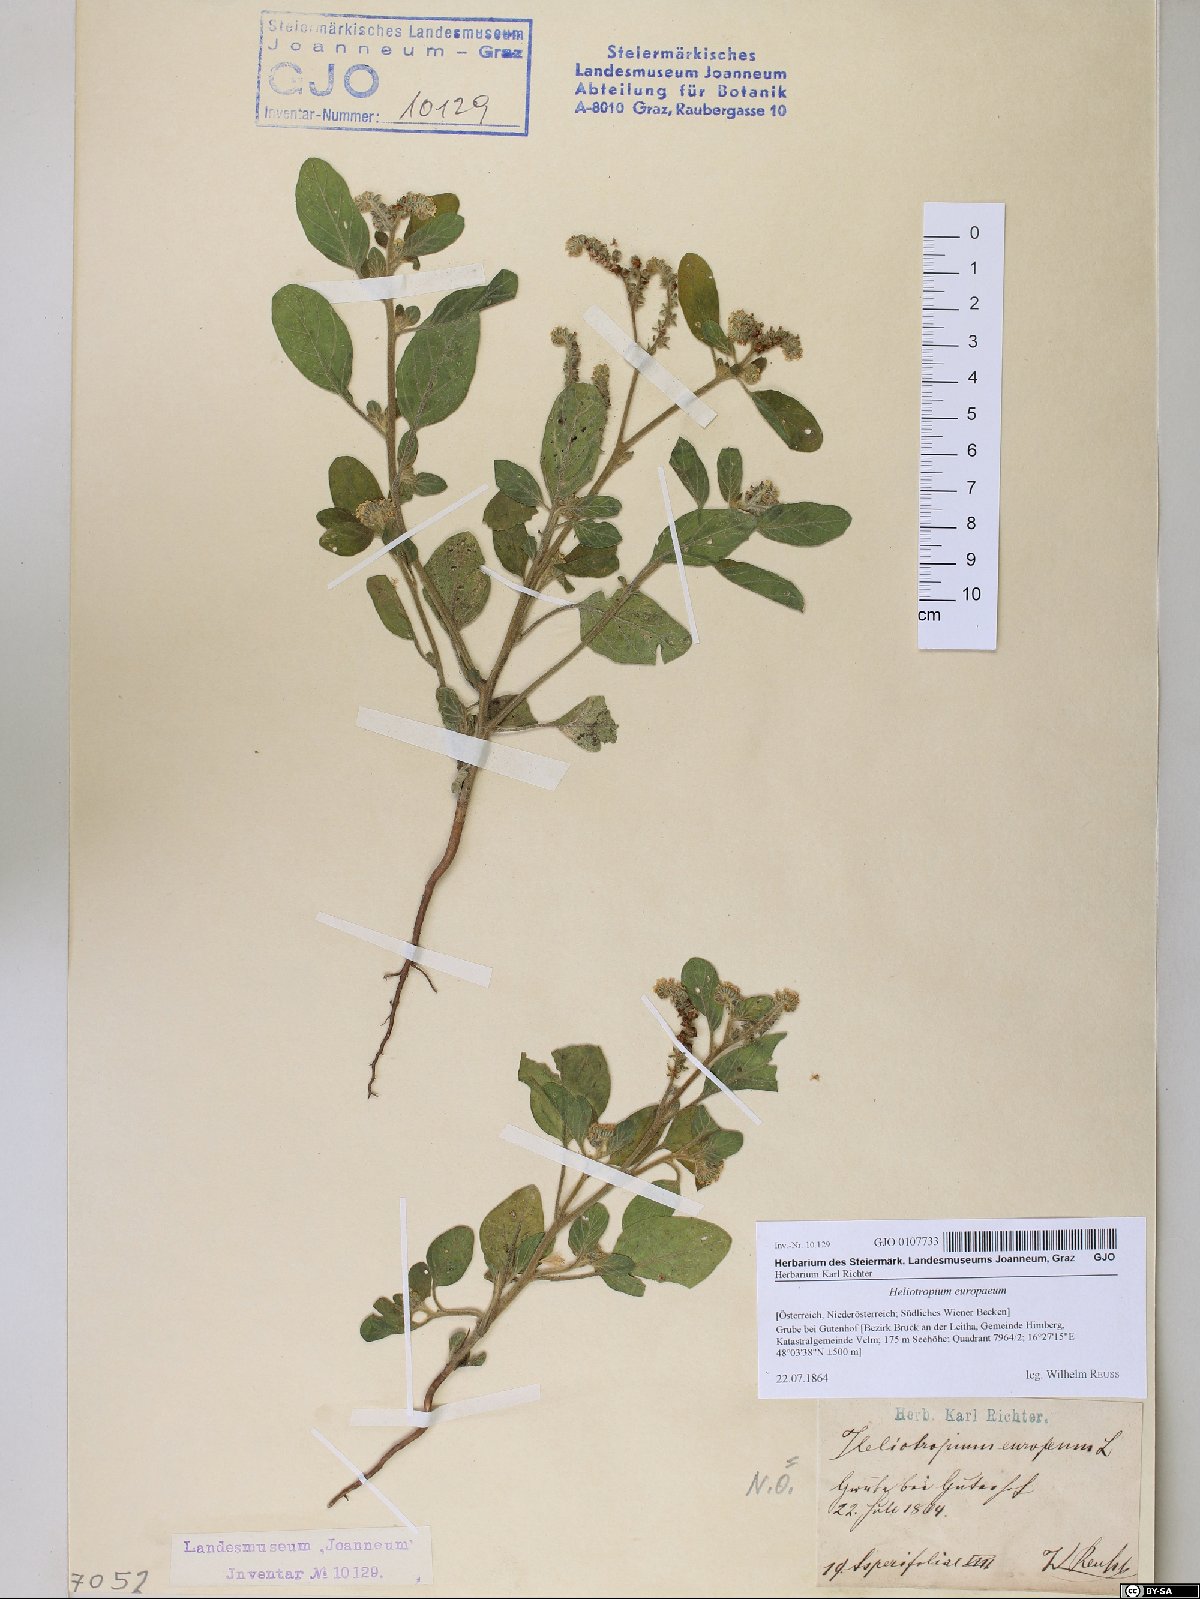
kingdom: Plantae
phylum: Tracheophyta
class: Magnoliopsida
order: Boraginales
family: Heliotropiaceae
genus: Heliotropium
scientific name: Heliotropium europaeum
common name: European heliotrope
